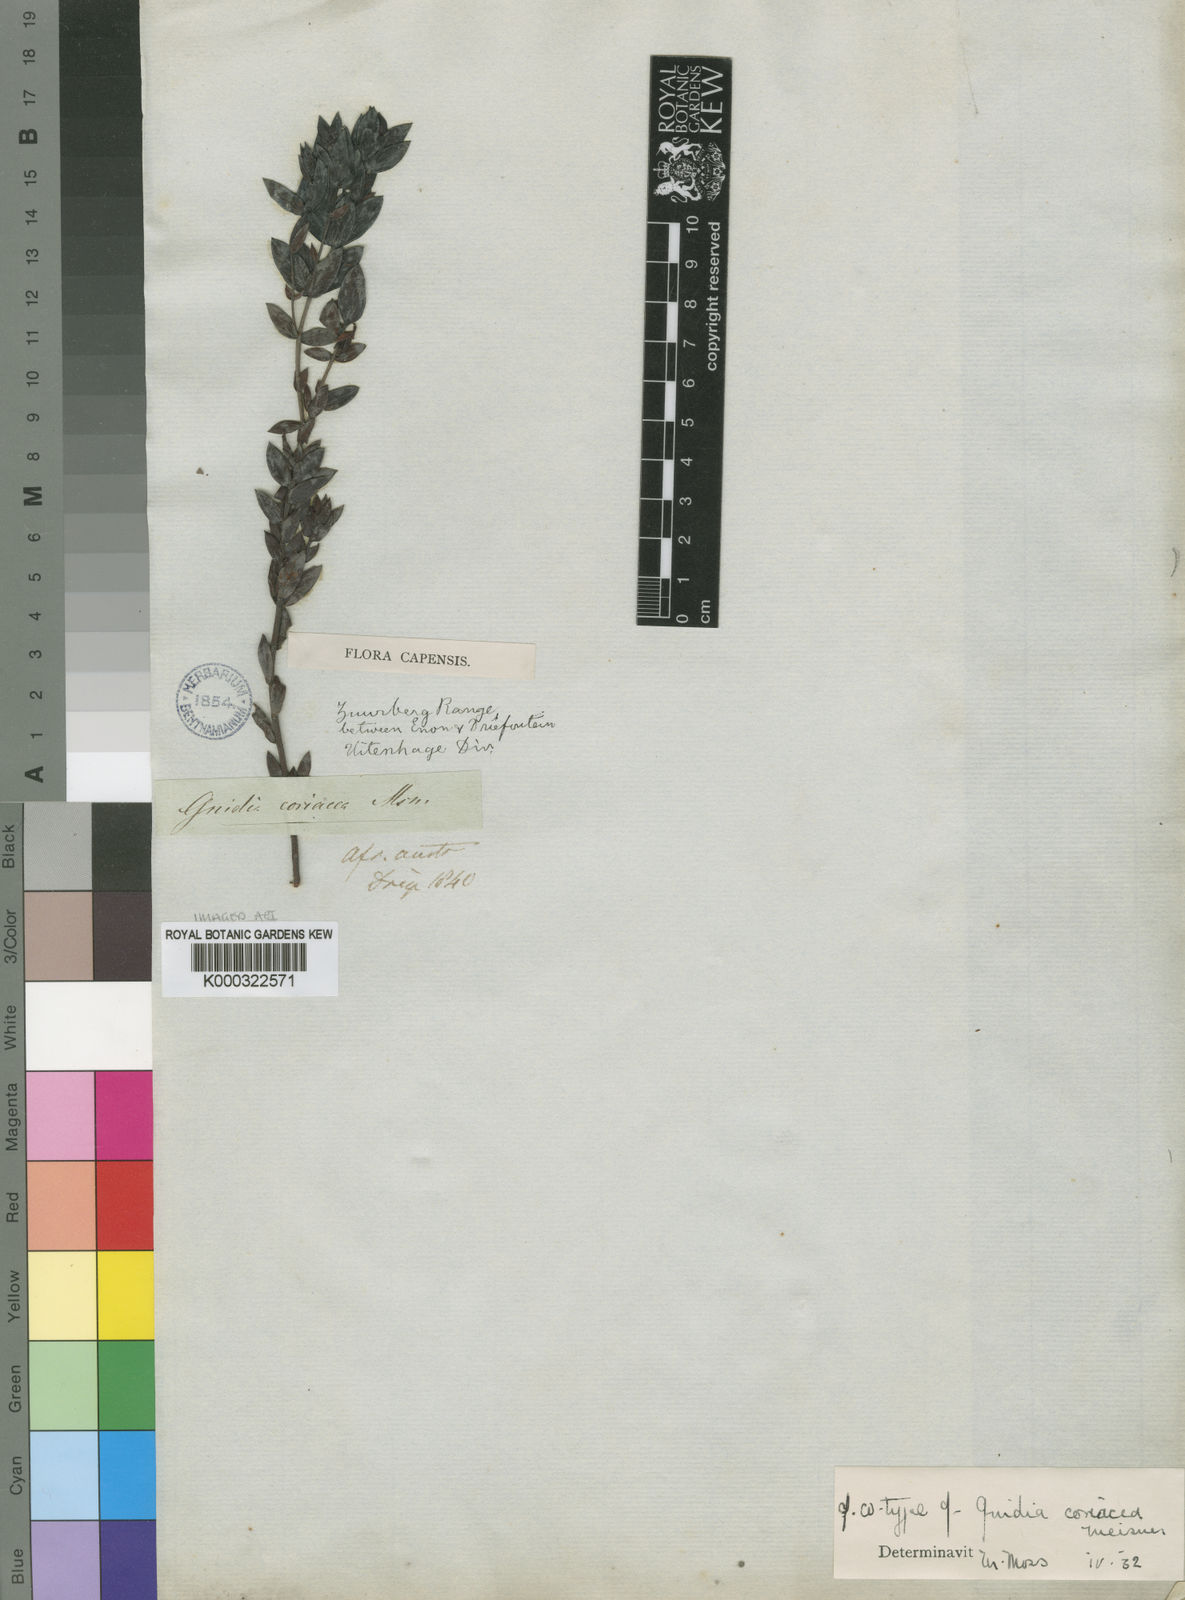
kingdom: Plantae
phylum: Tracheophyta
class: Magnoliopsida
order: Malvales
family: Thymelaeaceae
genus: Gnidia
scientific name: Gnidia coriacea
